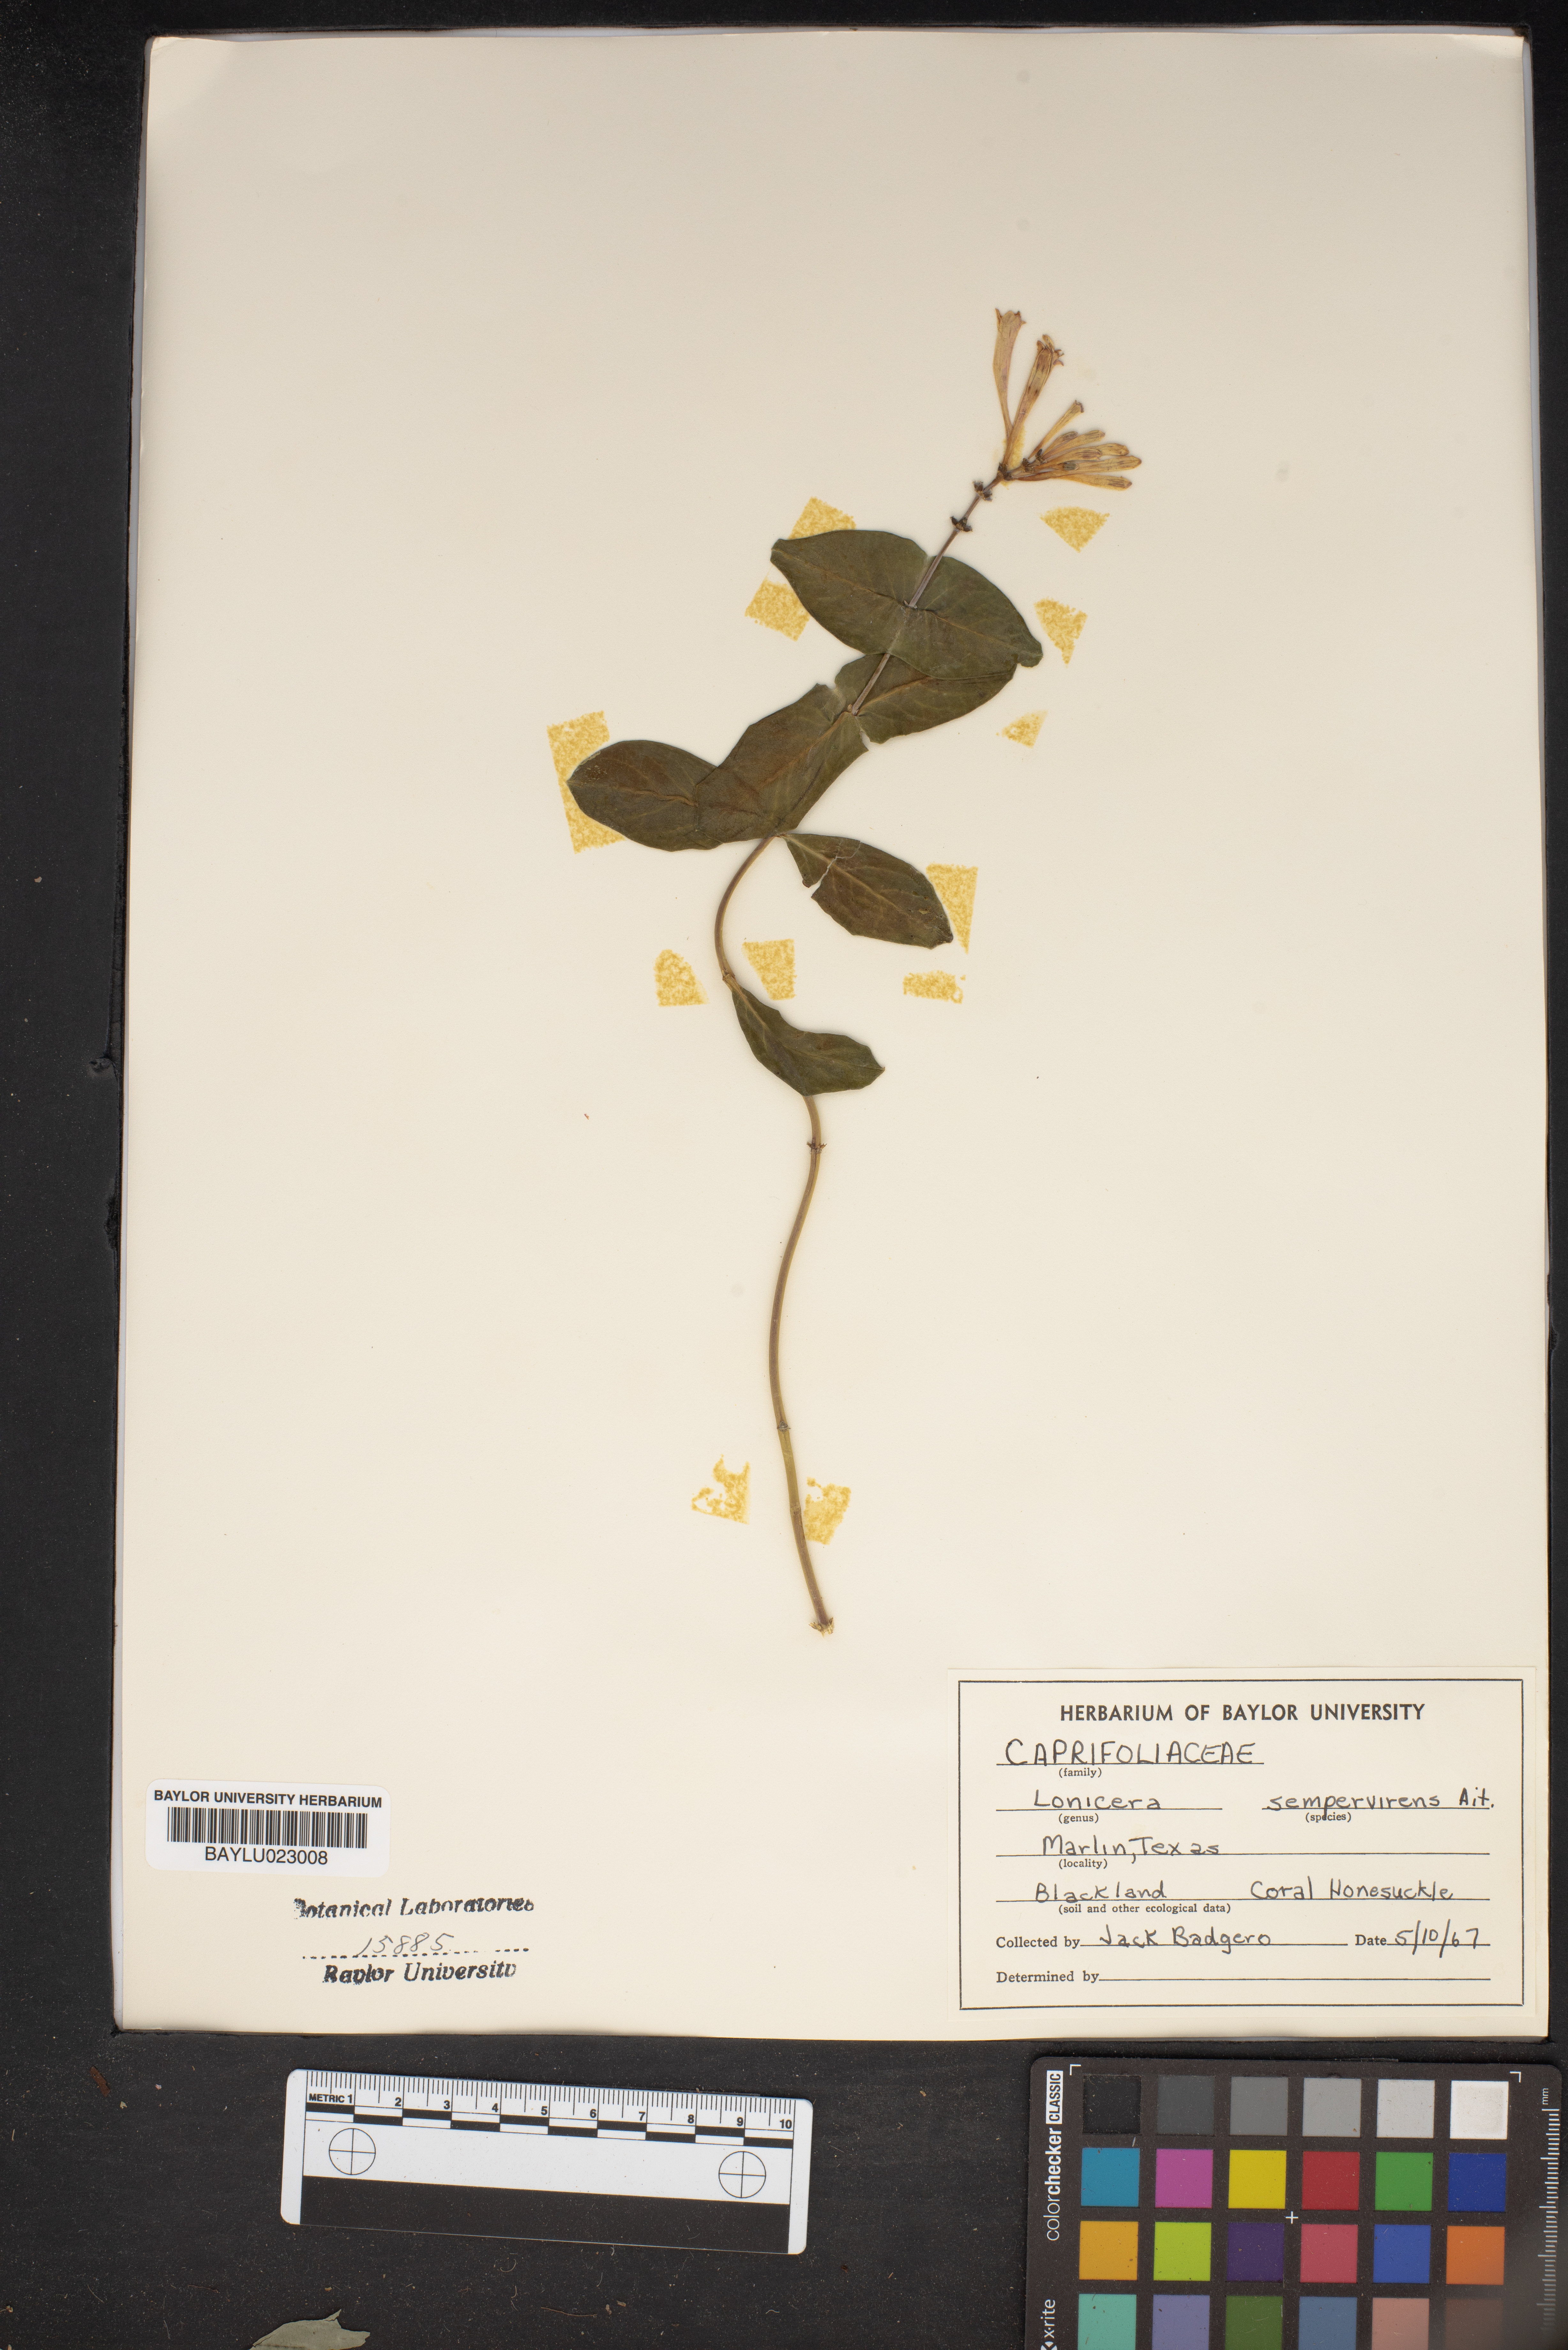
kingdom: Plantae
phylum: Tracheophyta
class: Magnoliopsida
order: Dipsacales
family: Caprifoliaceae
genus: Lonicera
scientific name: Lonicera sempervirens
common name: Coral honeysuckle
